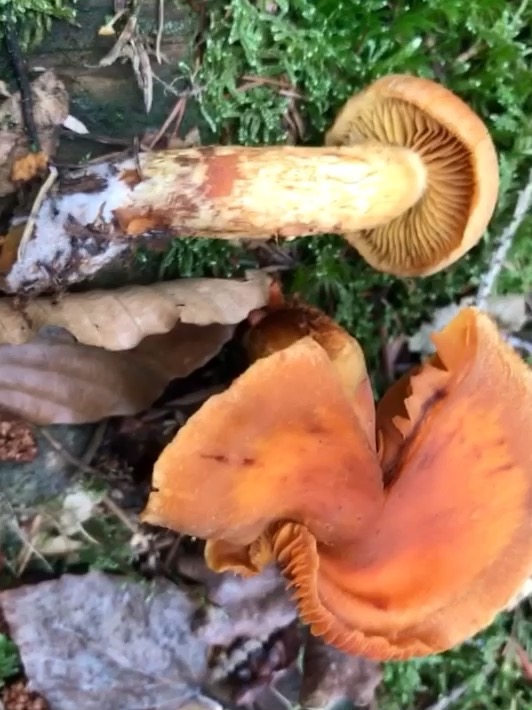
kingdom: Fungi
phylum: Basidiomycota
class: Agaricomycetes
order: Agaricales
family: Cortinariaceae
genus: Aureonarius
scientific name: Aureonarius limonius
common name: orangegul slørhat
